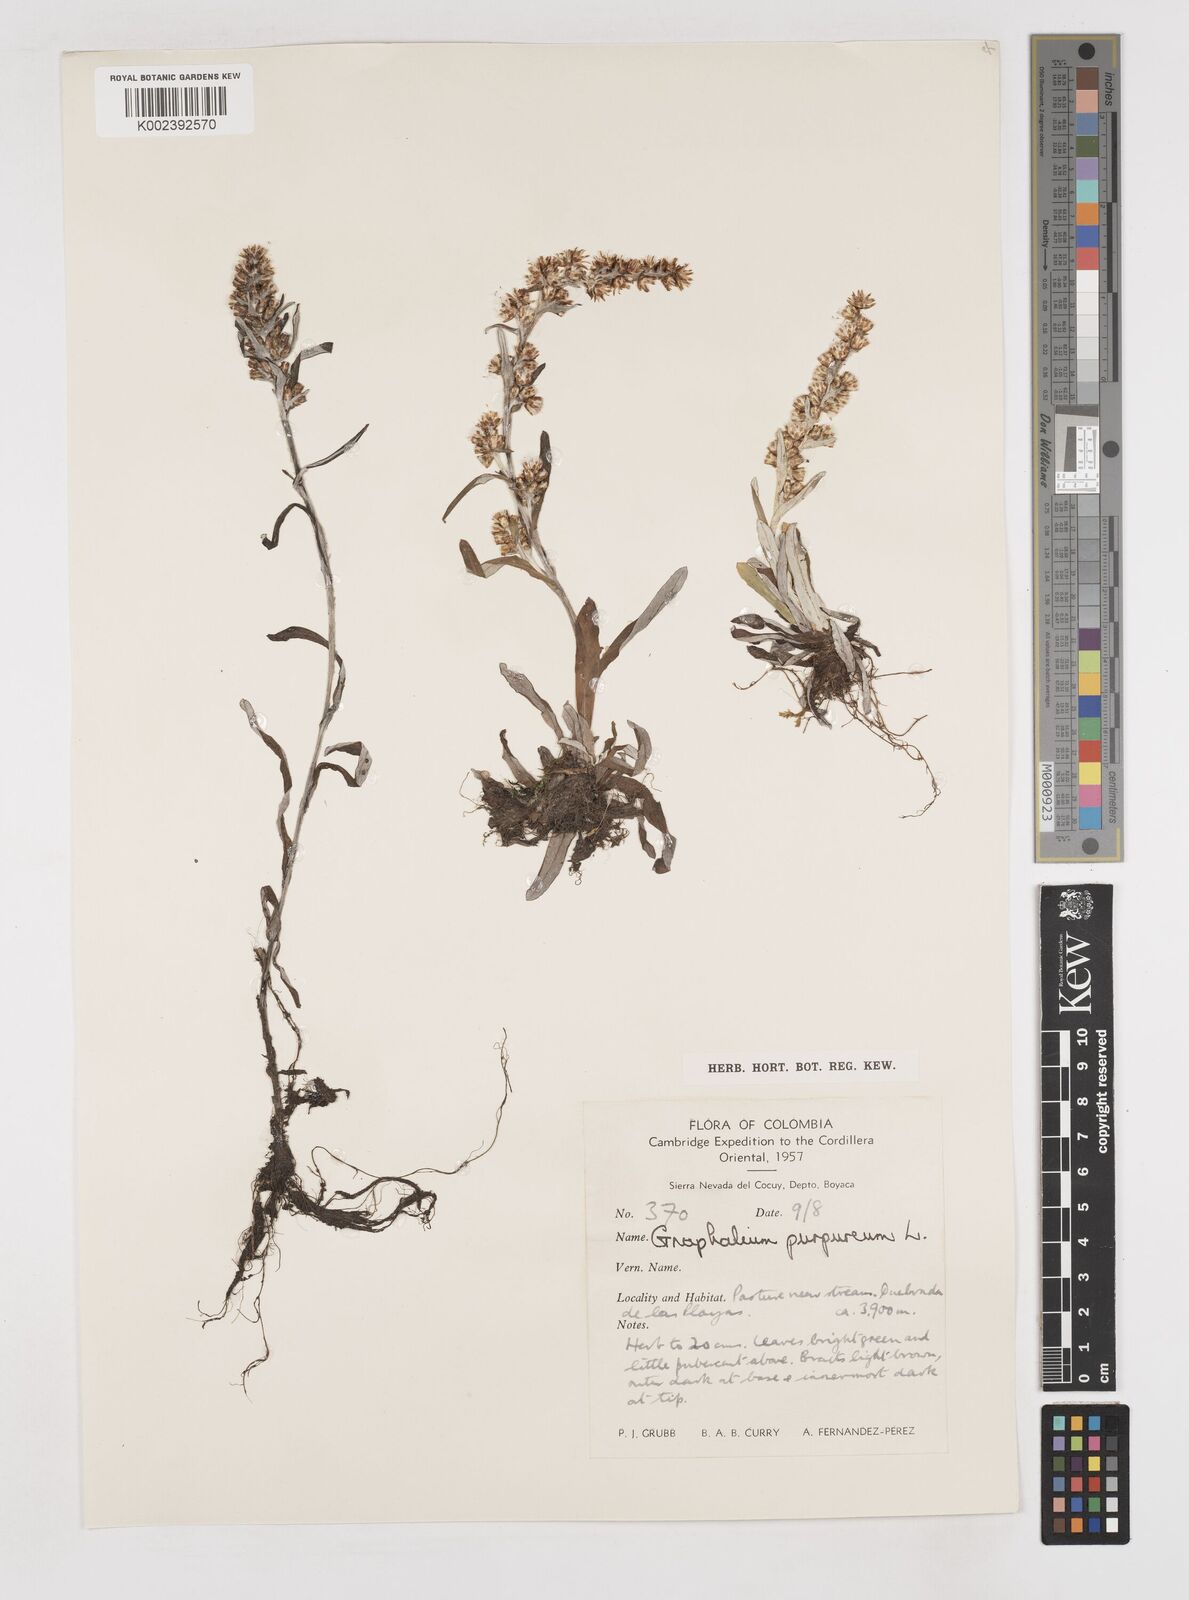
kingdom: Plantae
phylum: Tracheophyta
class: Magnoliopsida
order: Asterales
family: Asteraceae
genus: Pseudognaphalium
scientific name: Pseudognaphalium purpurascens
